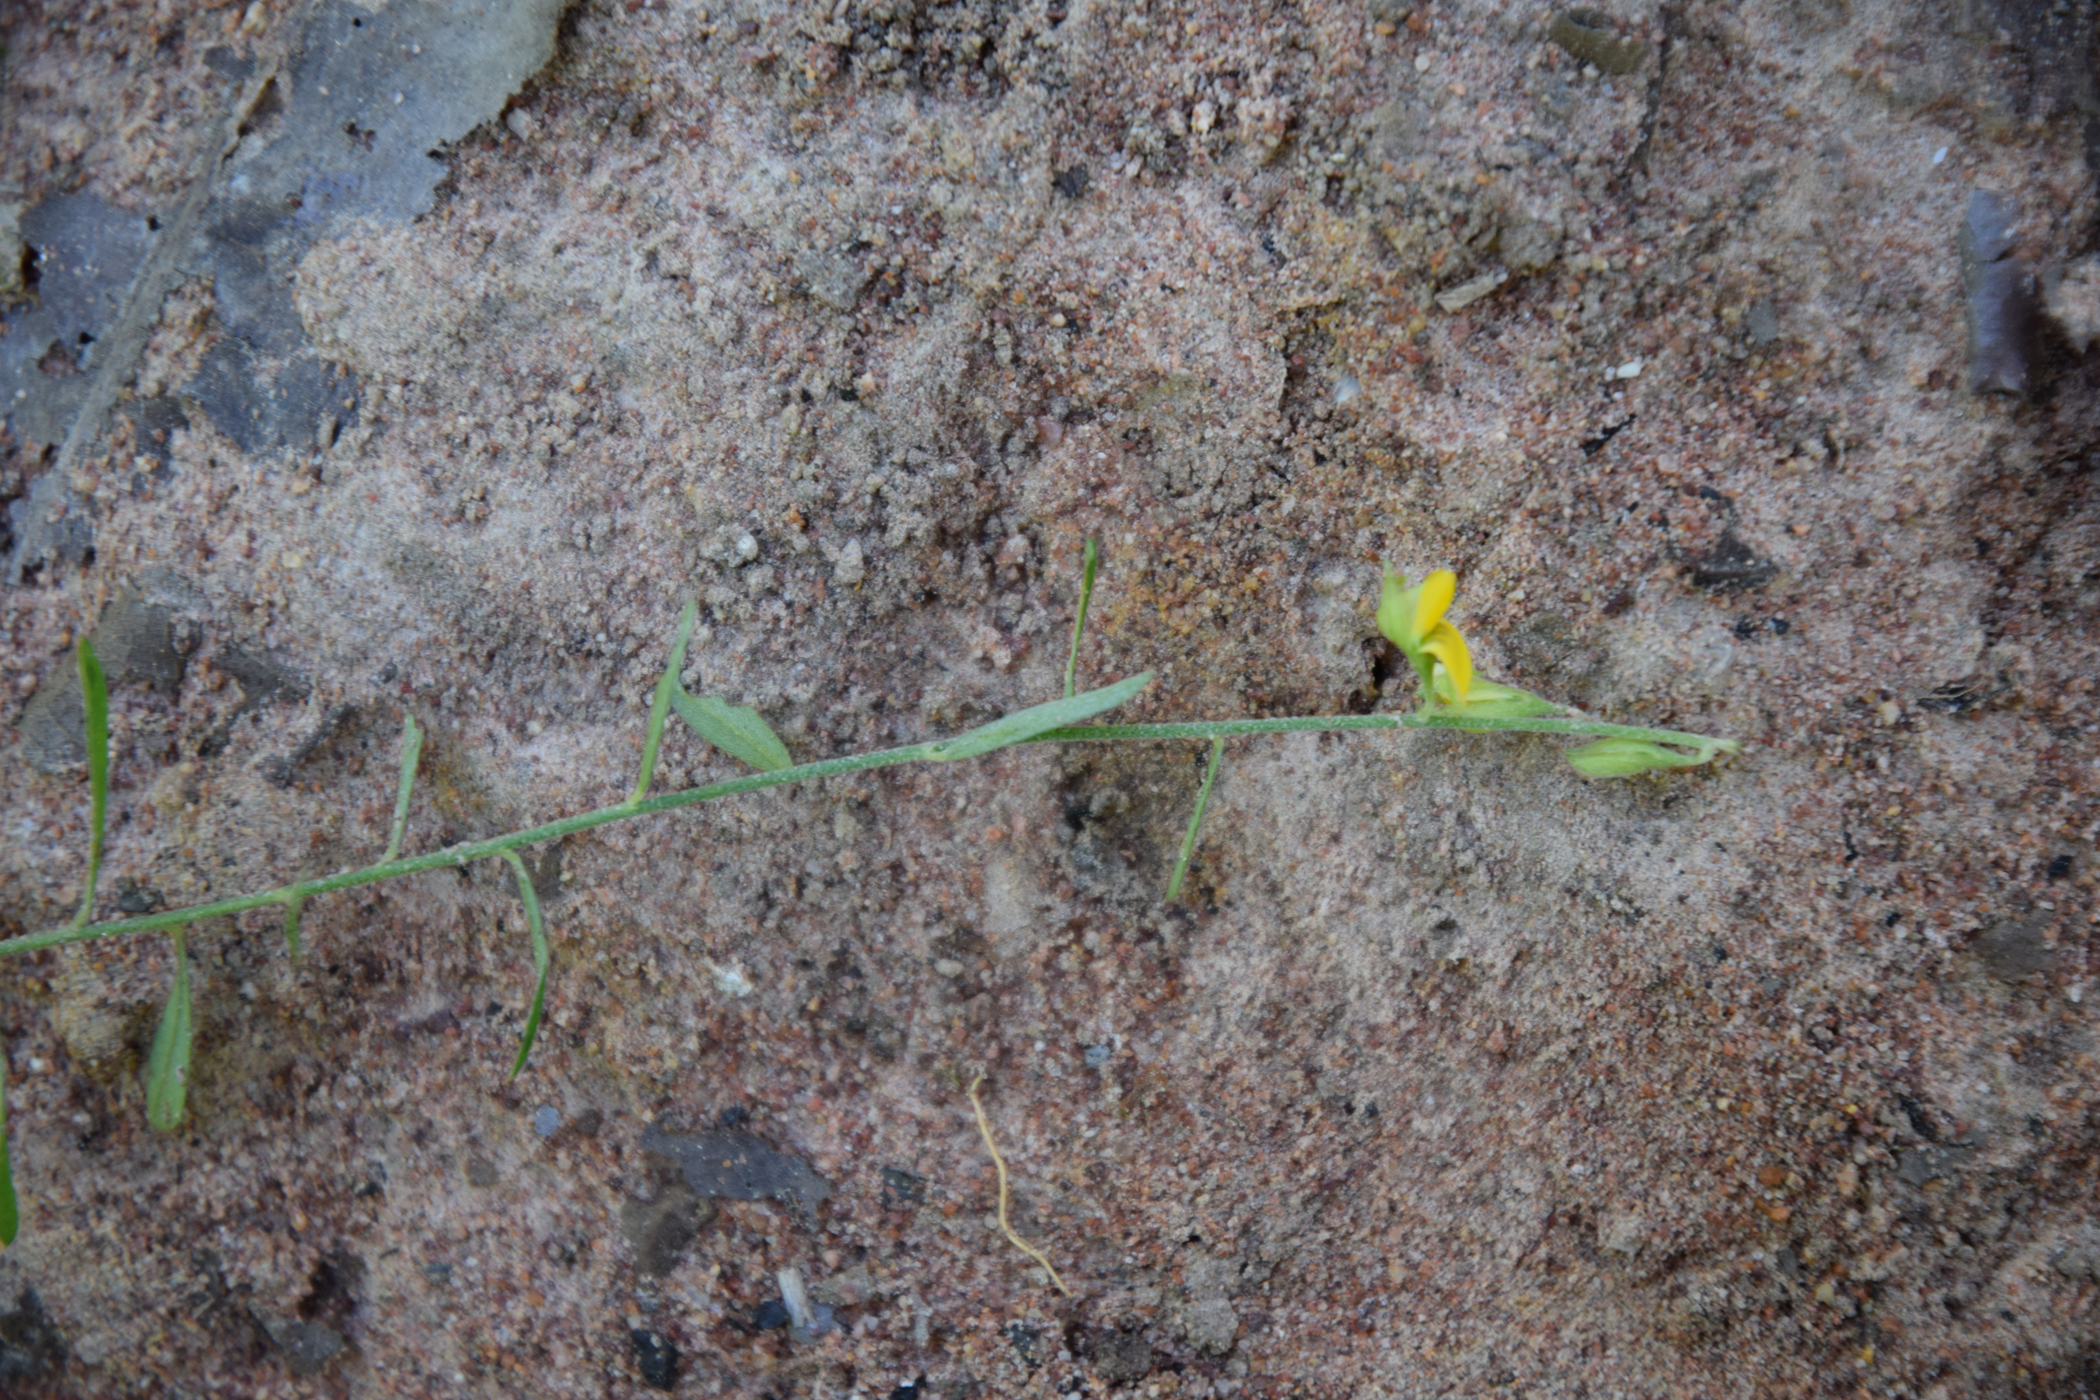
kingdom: Plantae
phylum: Tracheophyta
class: Magnoliopsida
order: Fabales
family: Fabaceae
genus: Crotalaria
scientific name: Crotalaria prostrata
